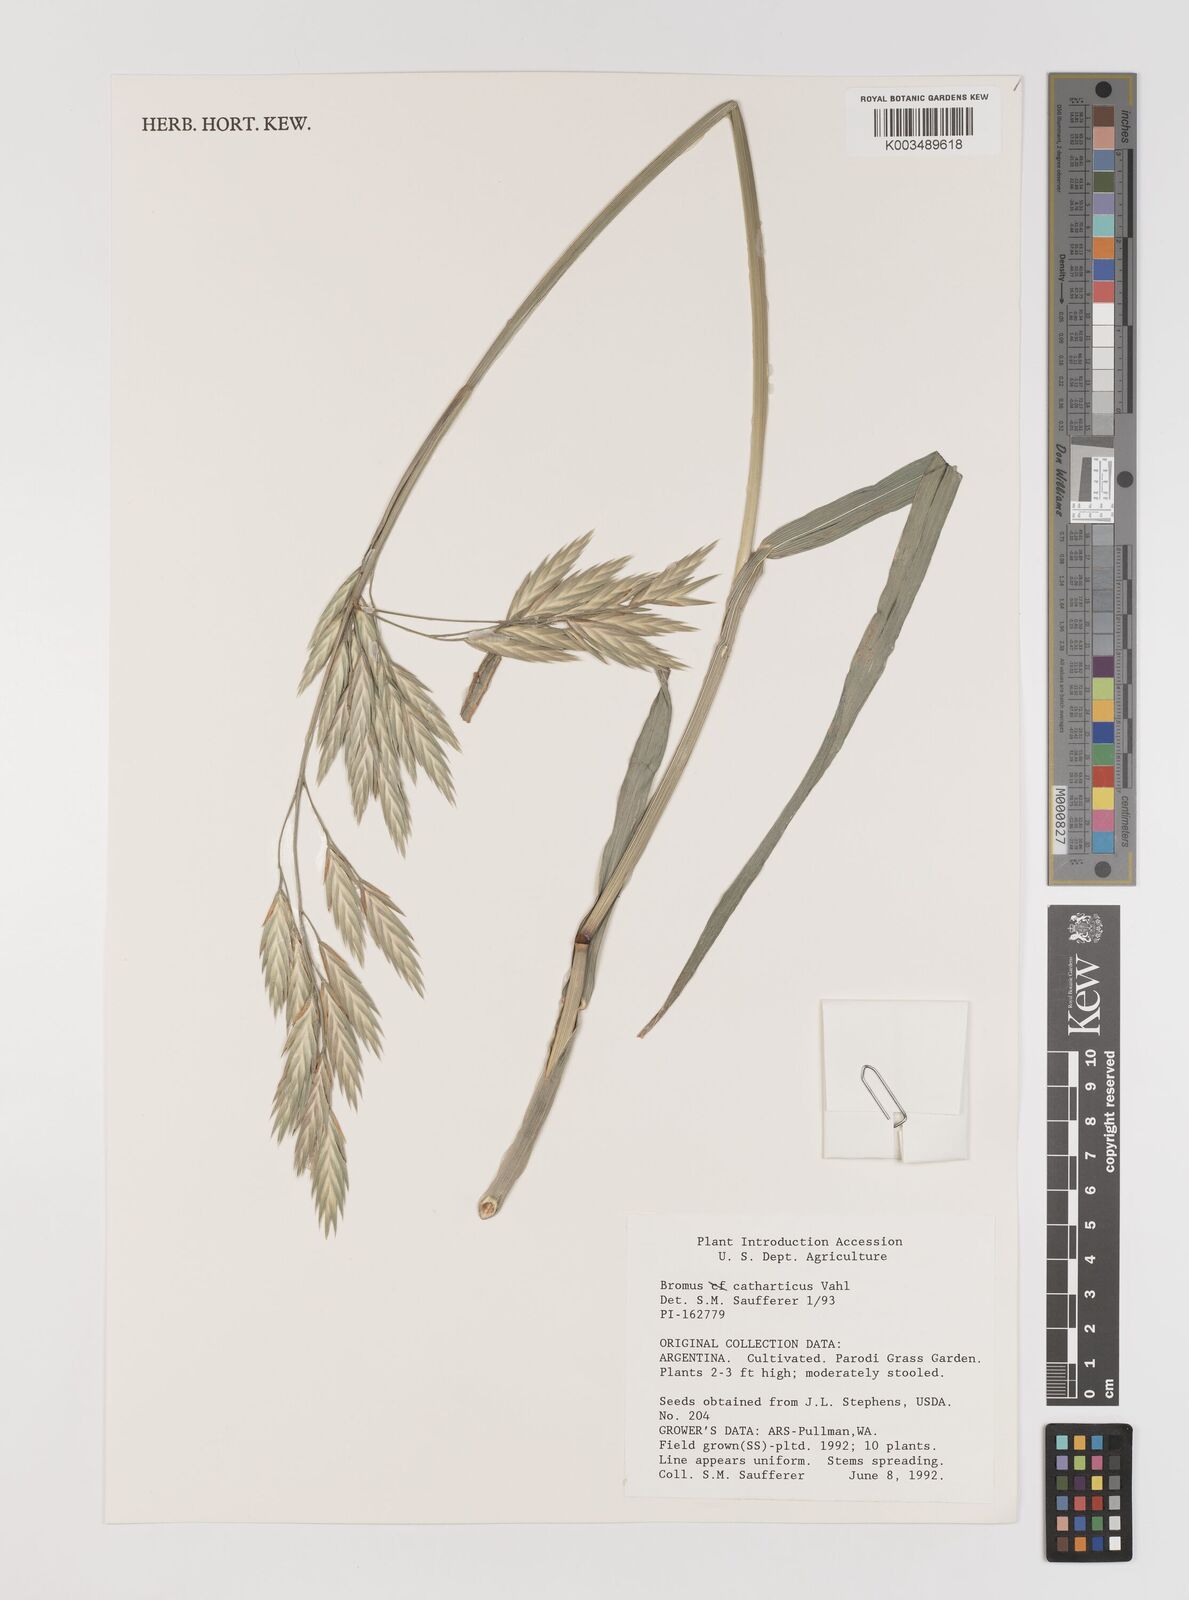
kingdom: Plantae
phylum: Tracheophyta
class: Liliopsida
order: Poales
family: Poaceae
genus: Bromus
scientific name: Bromus catharticus
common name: Rescuegrass
